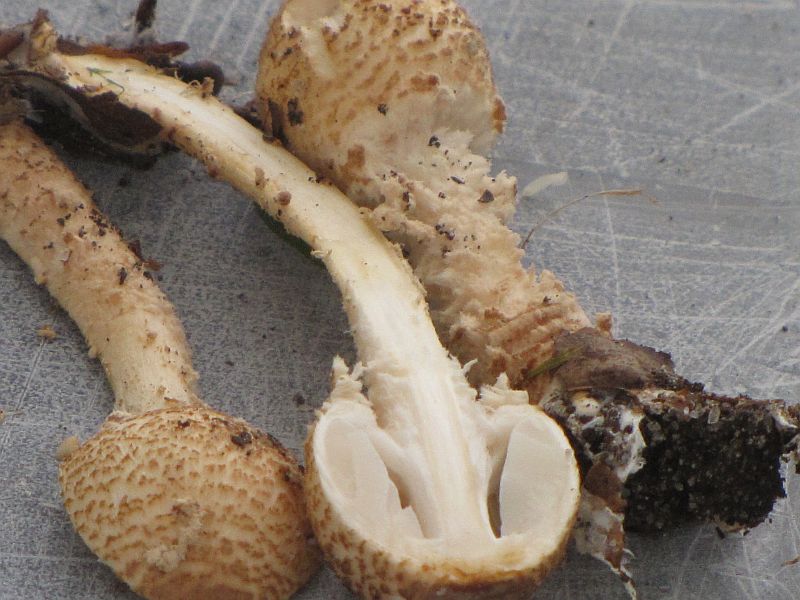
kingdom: Fungi
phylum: Basidiomycota
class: Agaricomycetes
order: Agaricales
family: Agaricaceae
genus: Lepiota
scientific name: Lepiota magnispora
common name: gulfnugget parasolhat
